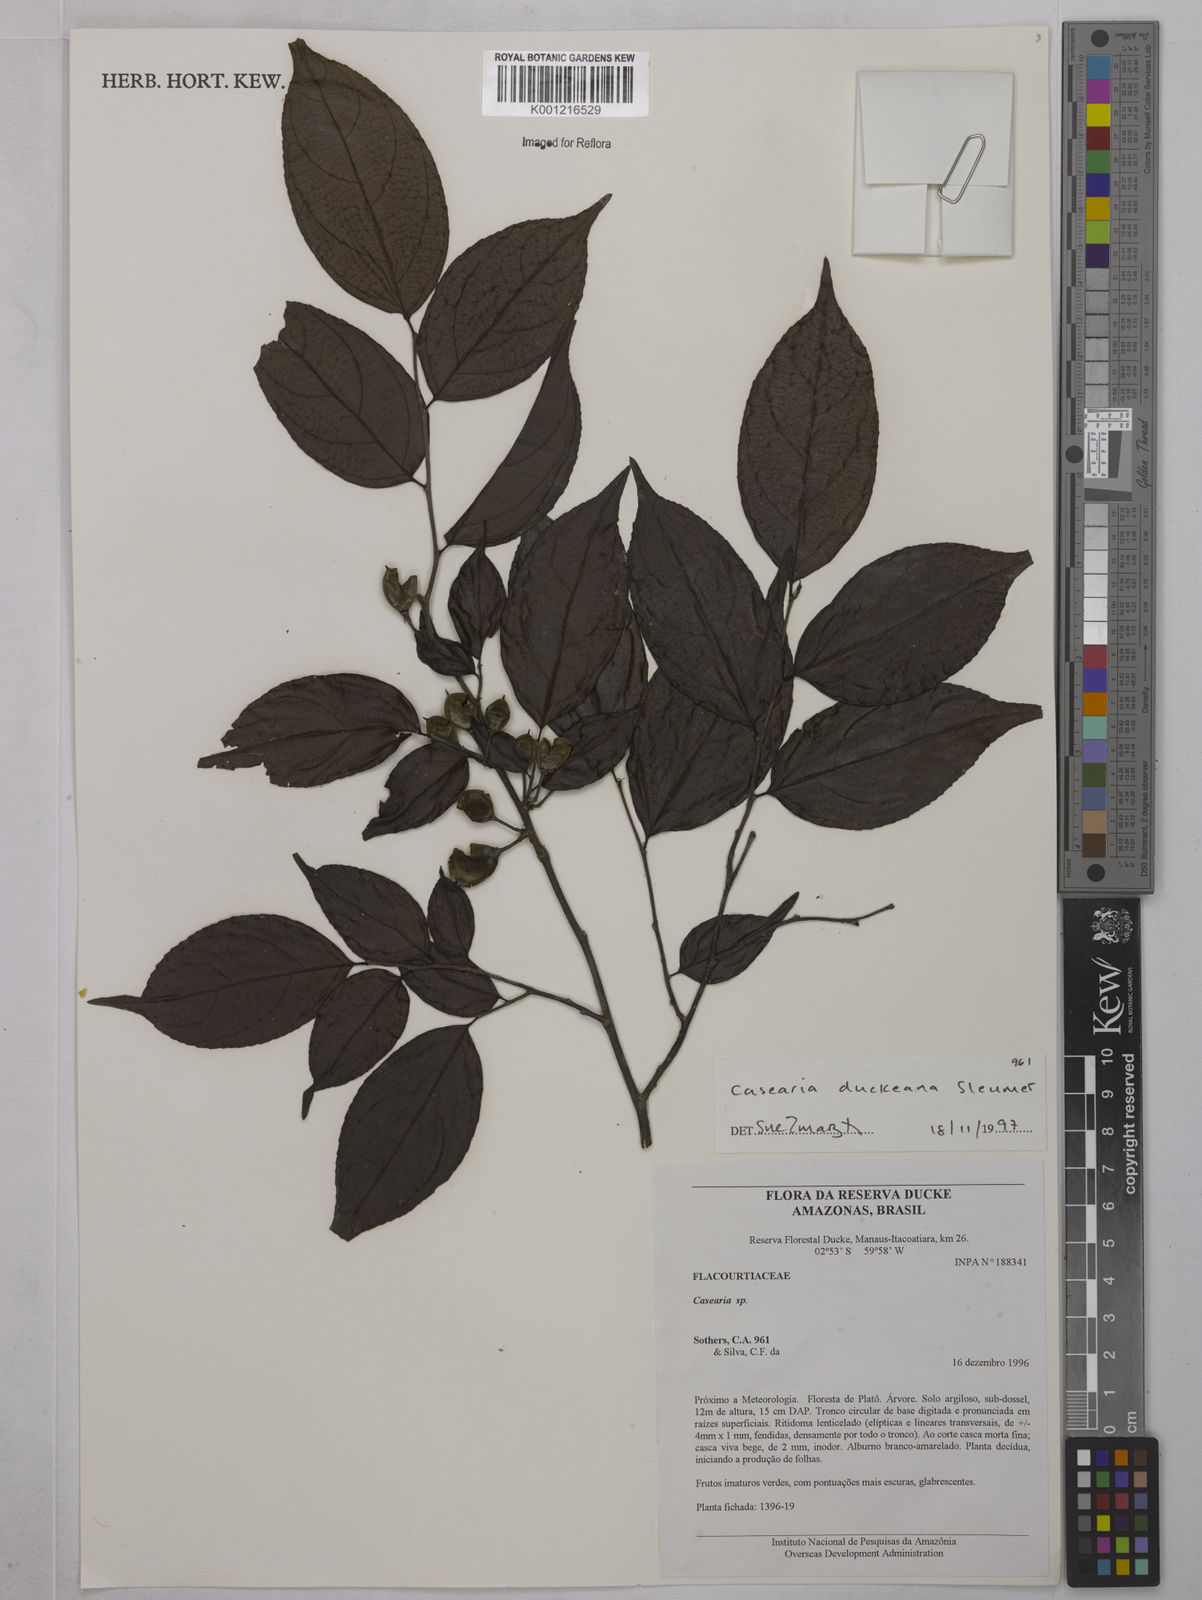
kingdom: Plantae
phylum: Tracheophyta
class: Magnoliopsida
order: Malpighiales
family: Salicaceae
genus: Casearia
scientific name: Casearia duckeana
